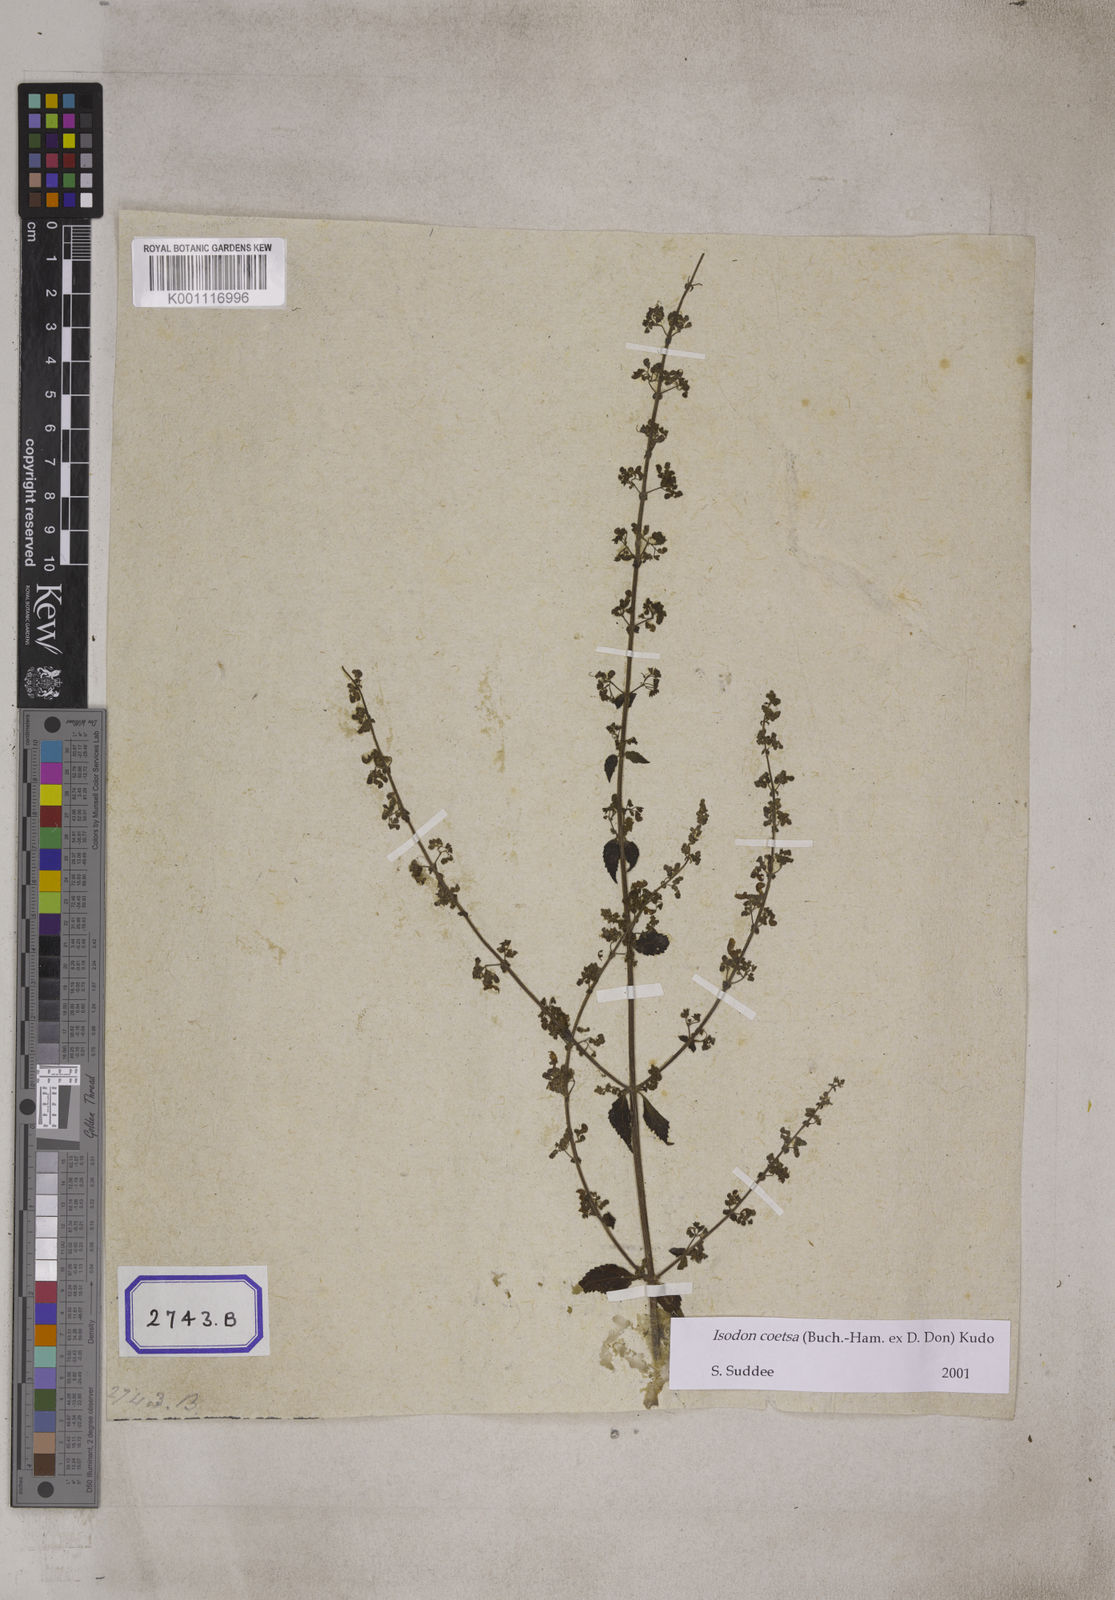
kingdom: Plantae
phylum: Tracheophyta
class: Magnoliopsida
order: Lamiales
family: Lamiaceae
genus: Isodon
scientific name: Isodon coetsa
